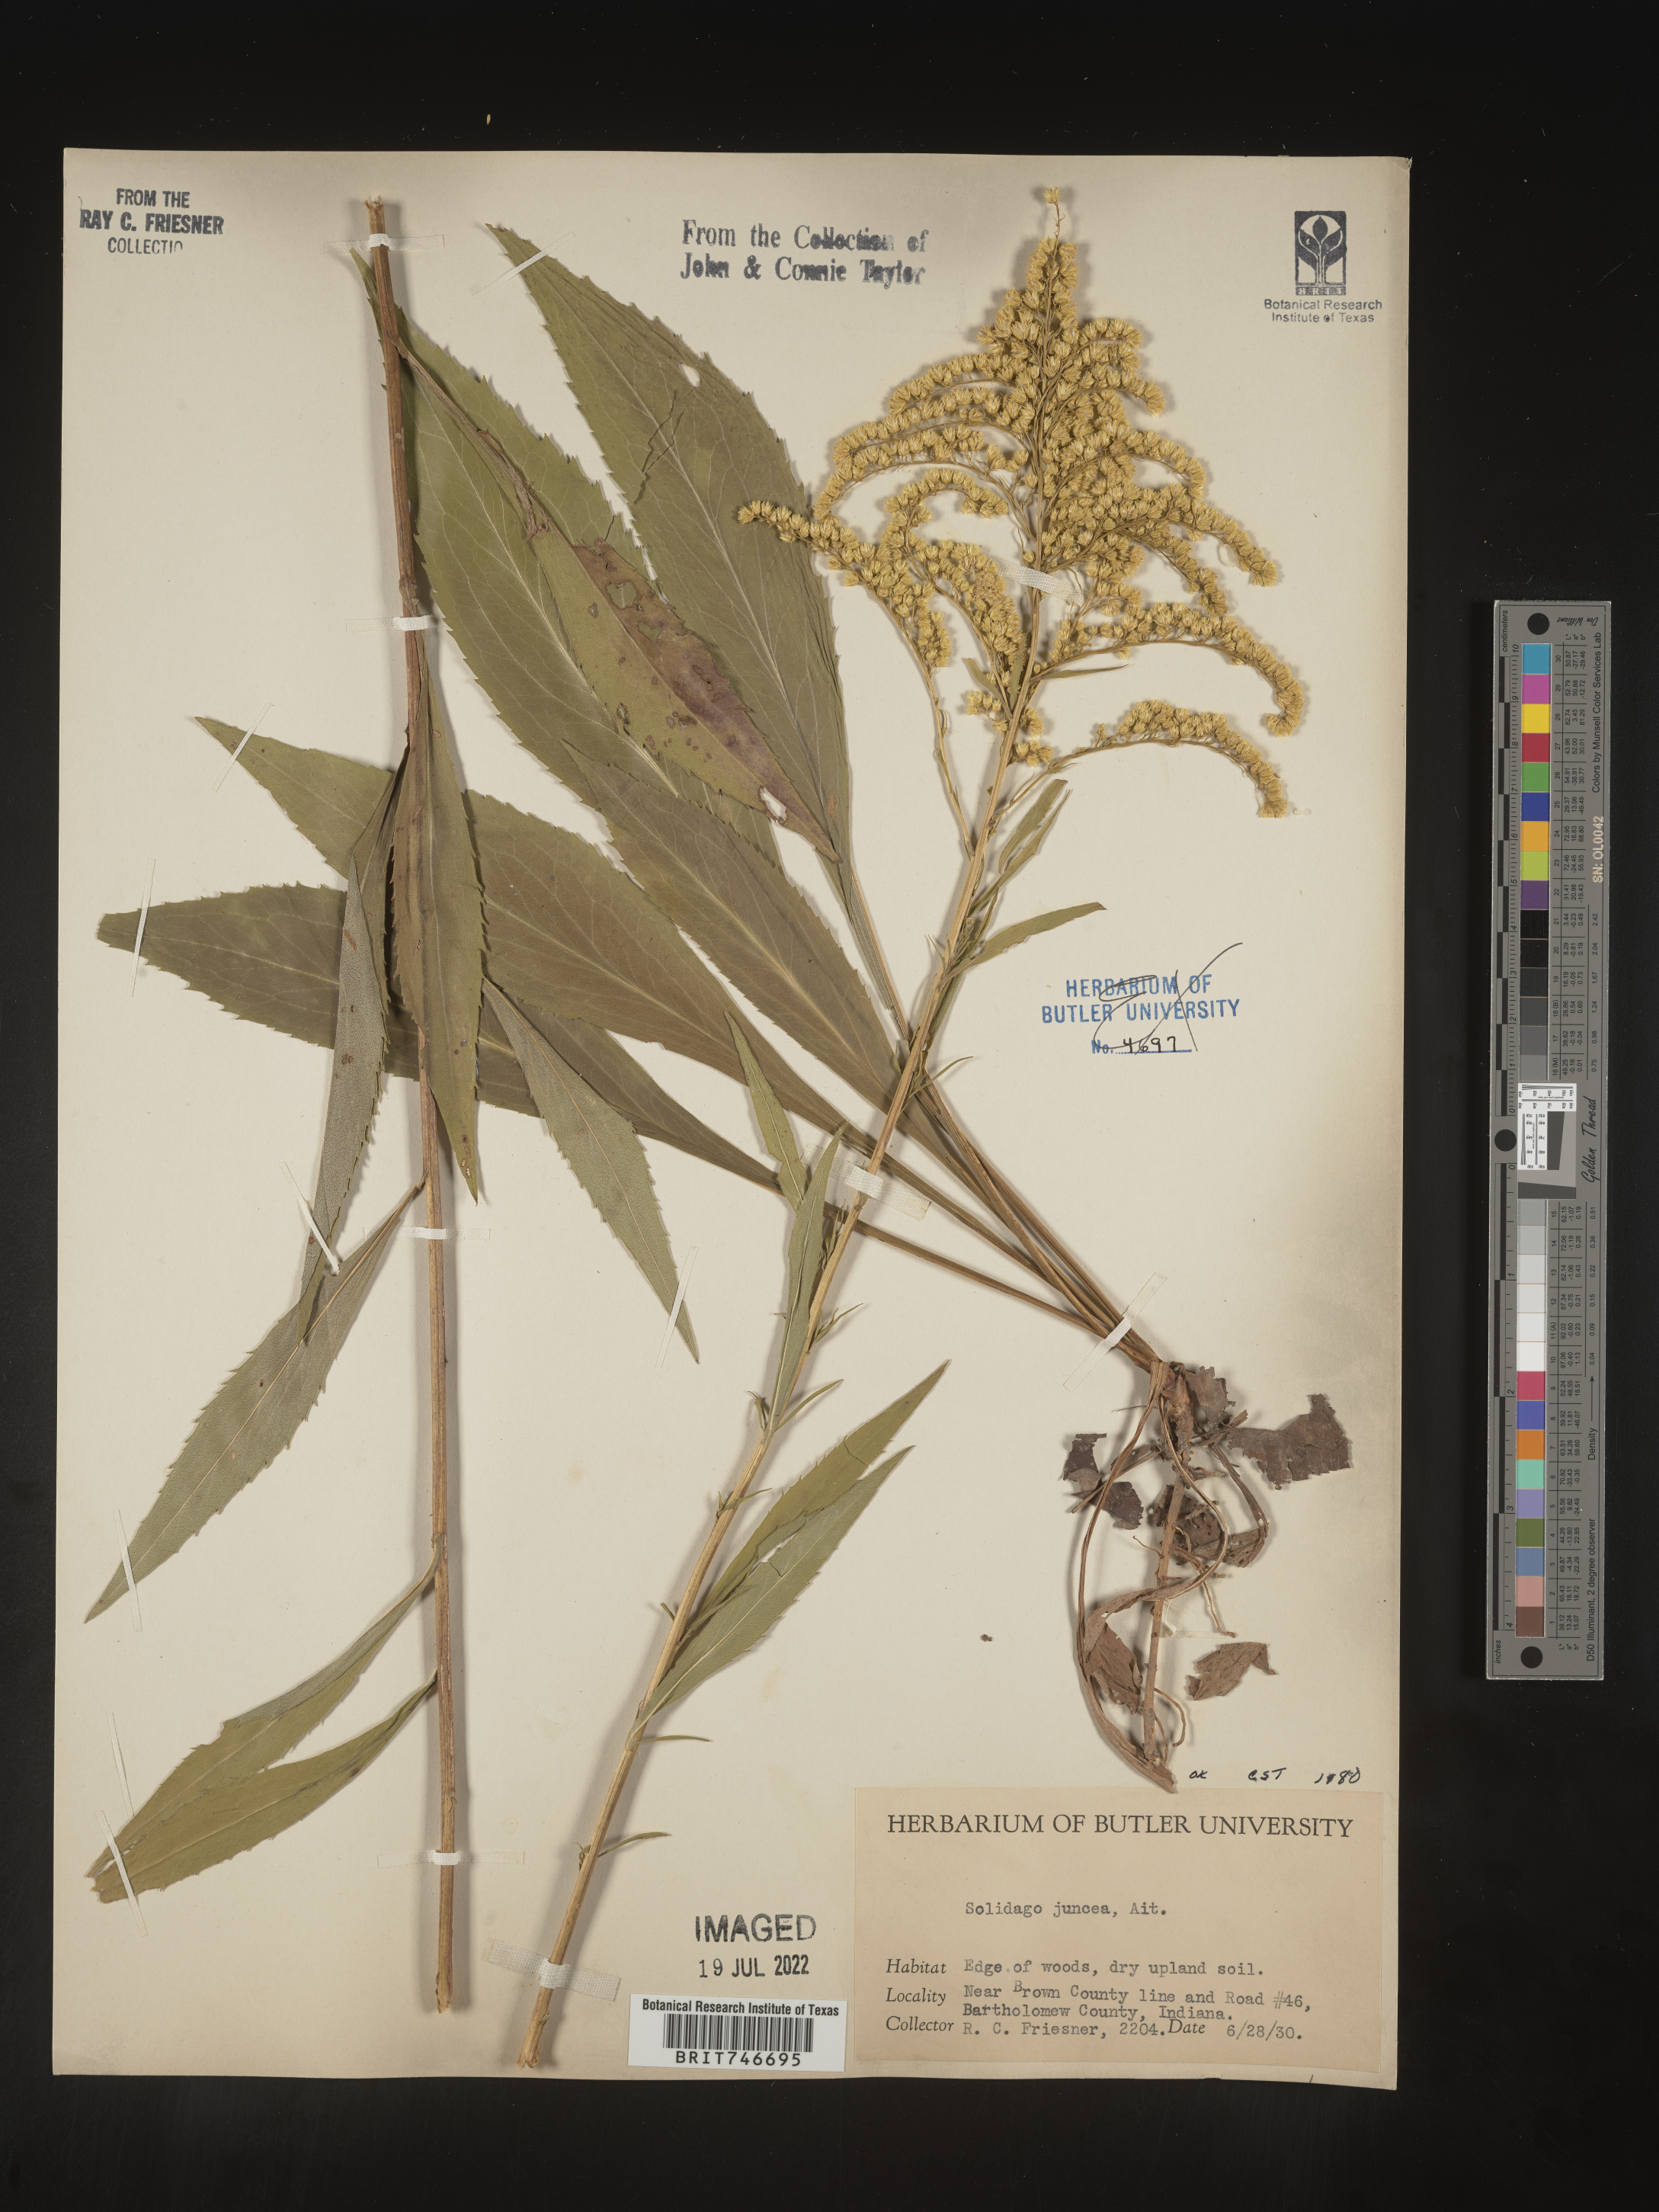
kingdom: Plantae
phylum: Tracheophyta
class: Magnoliopsida
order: Asterales
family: Asteraceae
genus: Solidago
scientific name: Solidago juncea
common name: Early goldenrod
